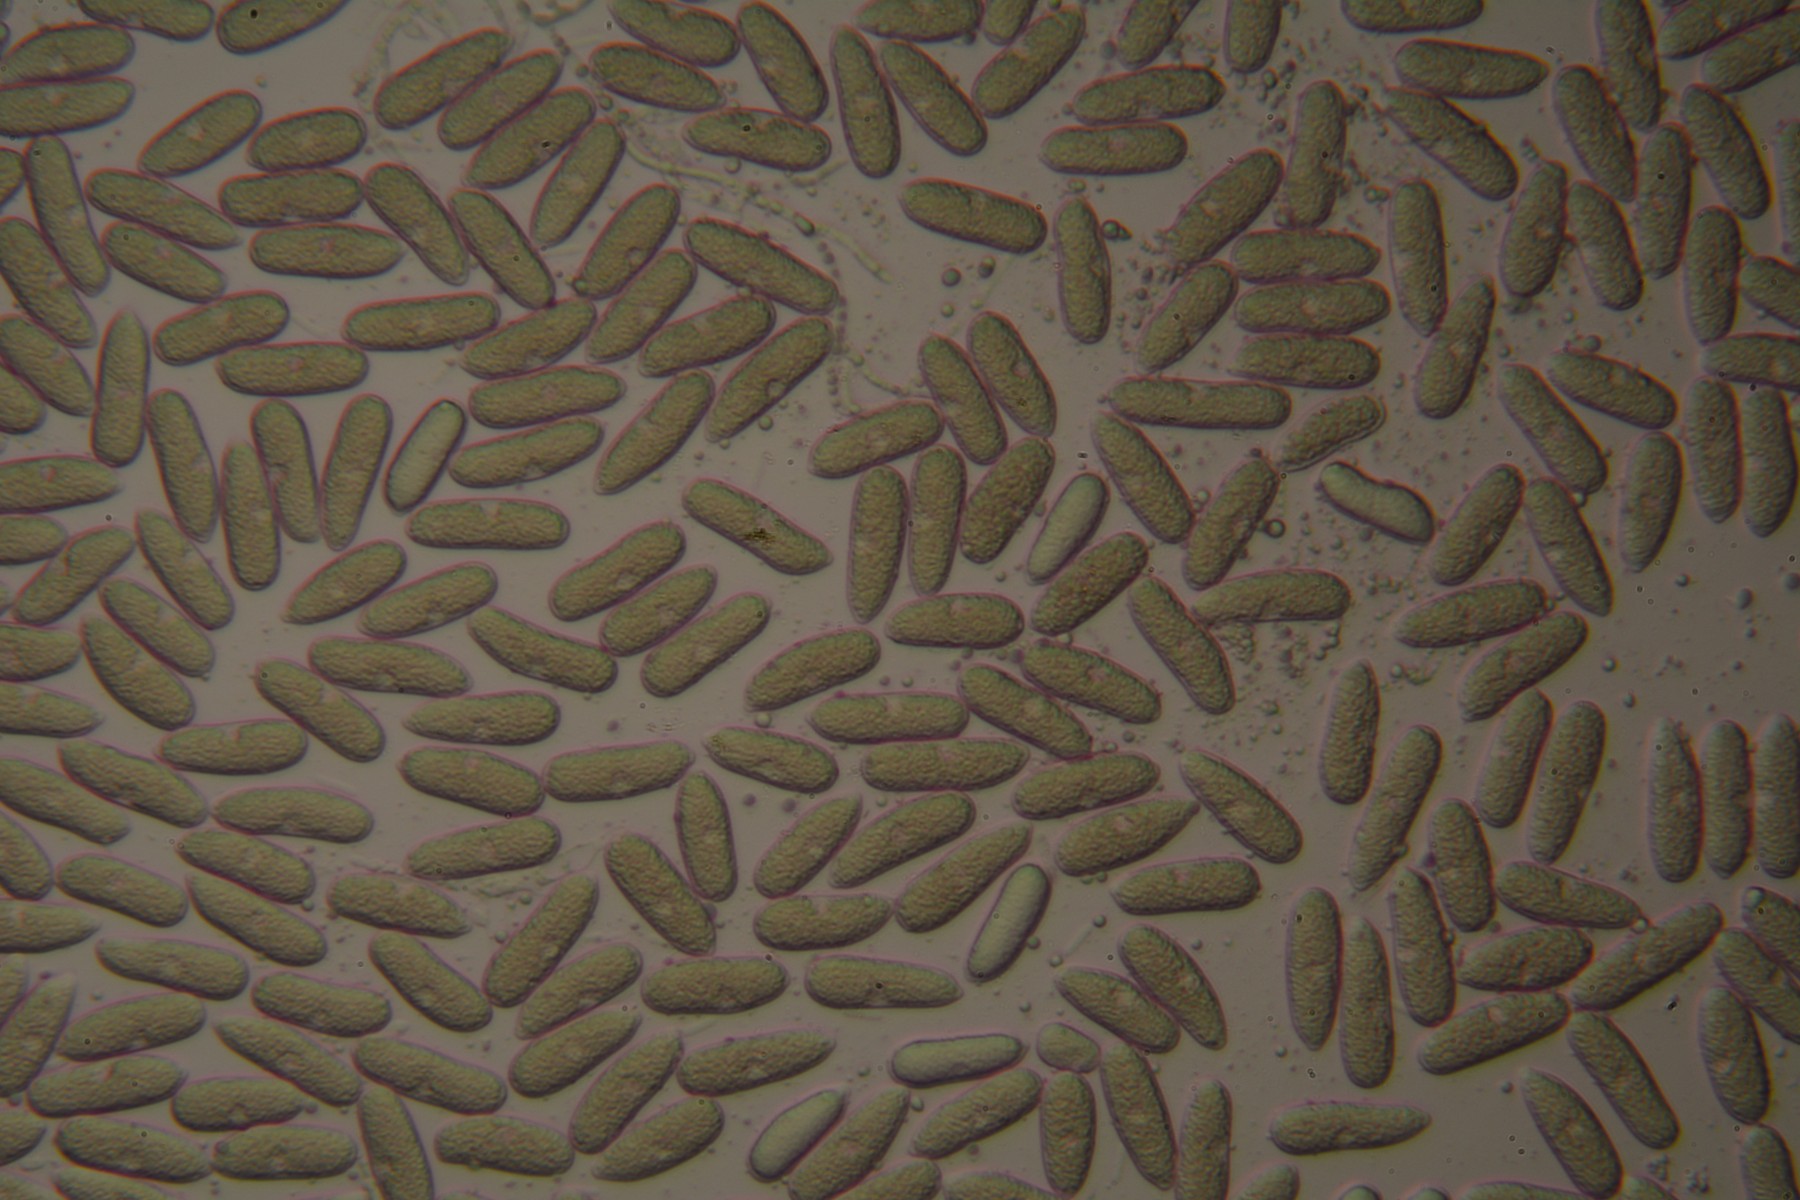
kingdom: Fungi
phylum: Ascomycota
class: Sordariomycetes
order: Diaporthales
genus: Botryodiplodia
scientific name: Botryodiplodia
